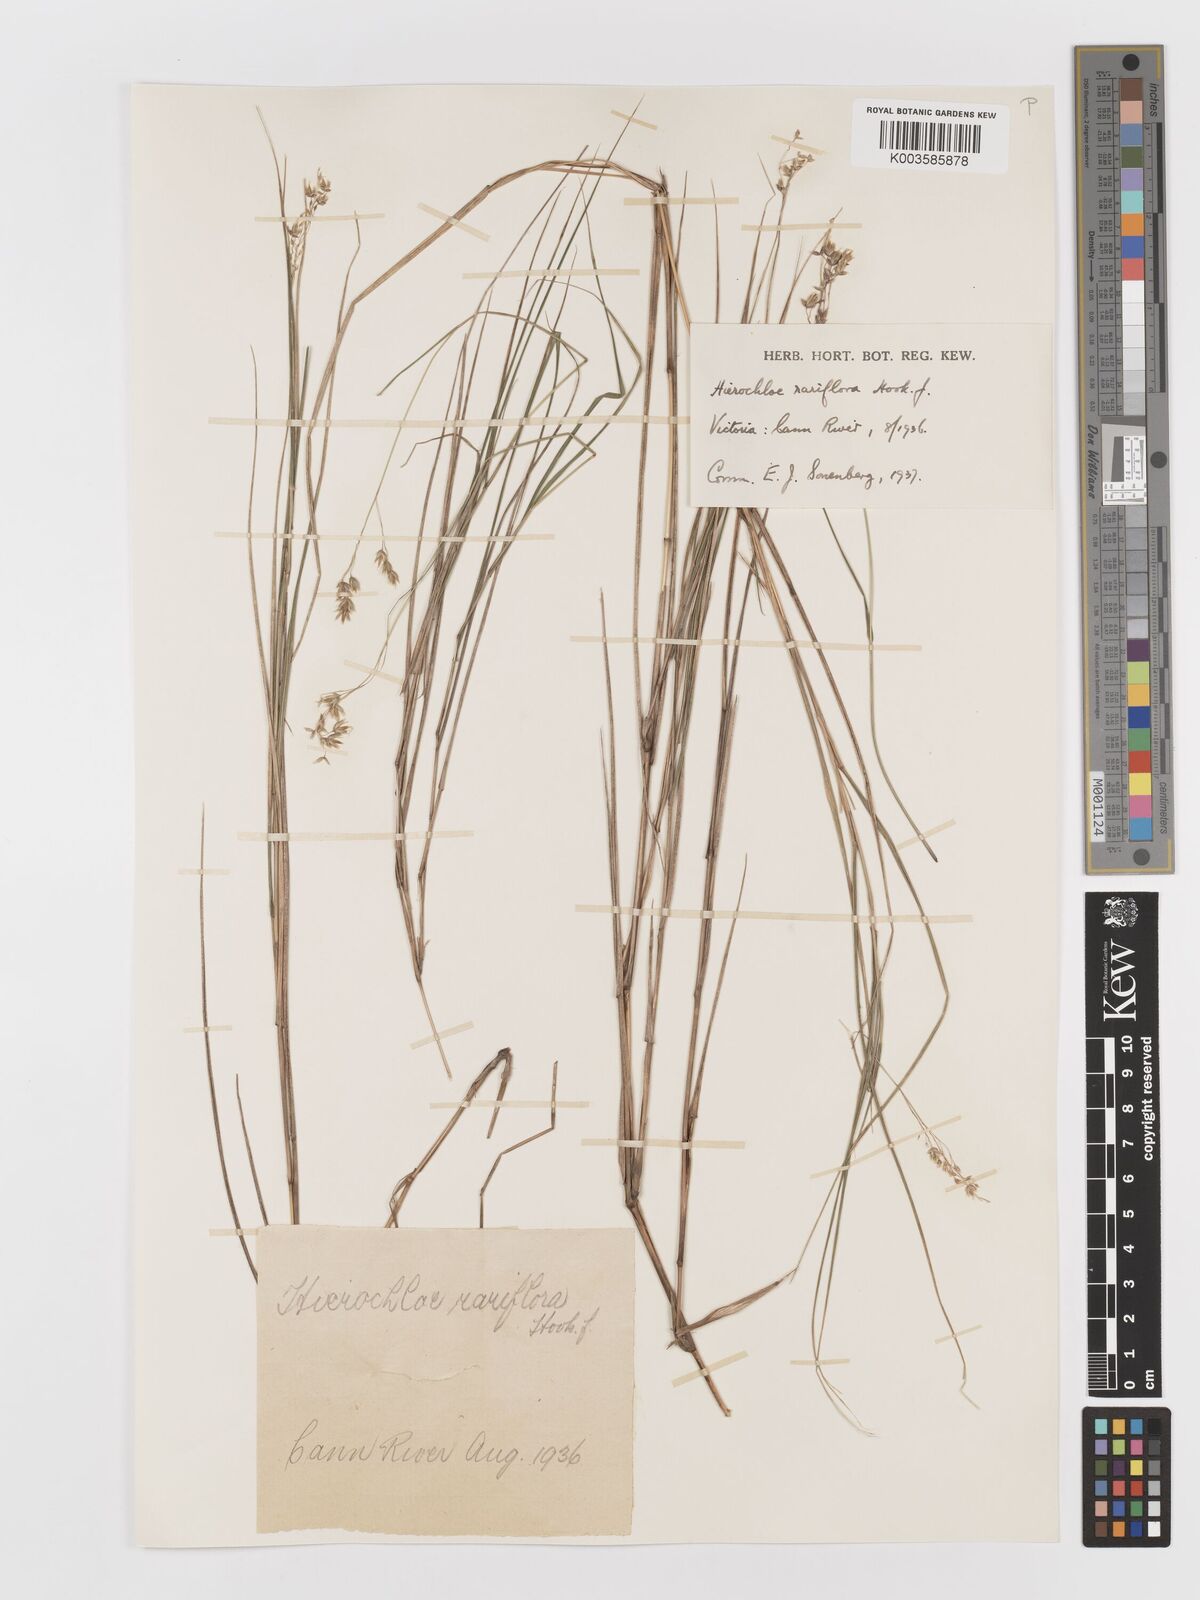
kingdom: Plantae
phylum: Tracheophyta
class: Liliopsida
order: Poales
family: Poaceae
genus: Anthoxanthum
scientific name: Anthoxanthum rariflorum
